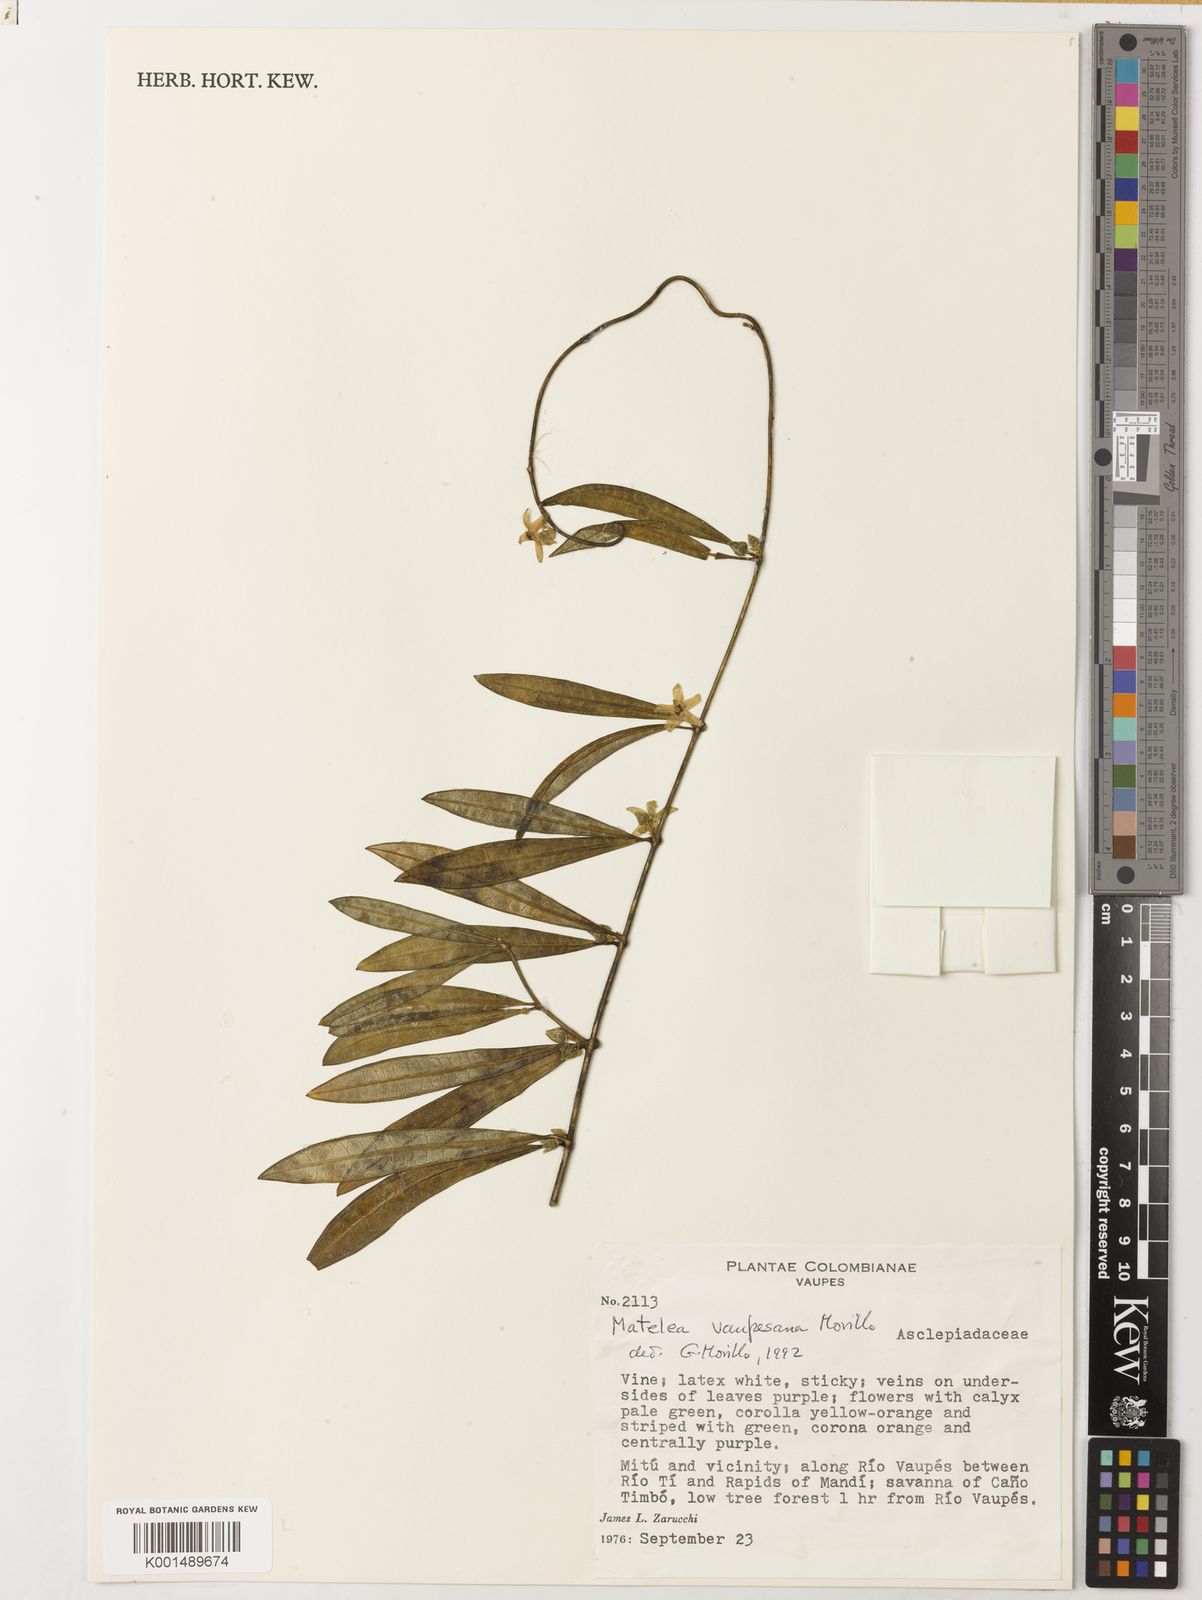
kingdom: Plantae
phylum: Tracheophyta
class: Magnoliopsida
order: Gentianales
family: Apocynaceae
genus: Matelea
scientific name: Matelea vaupesana
